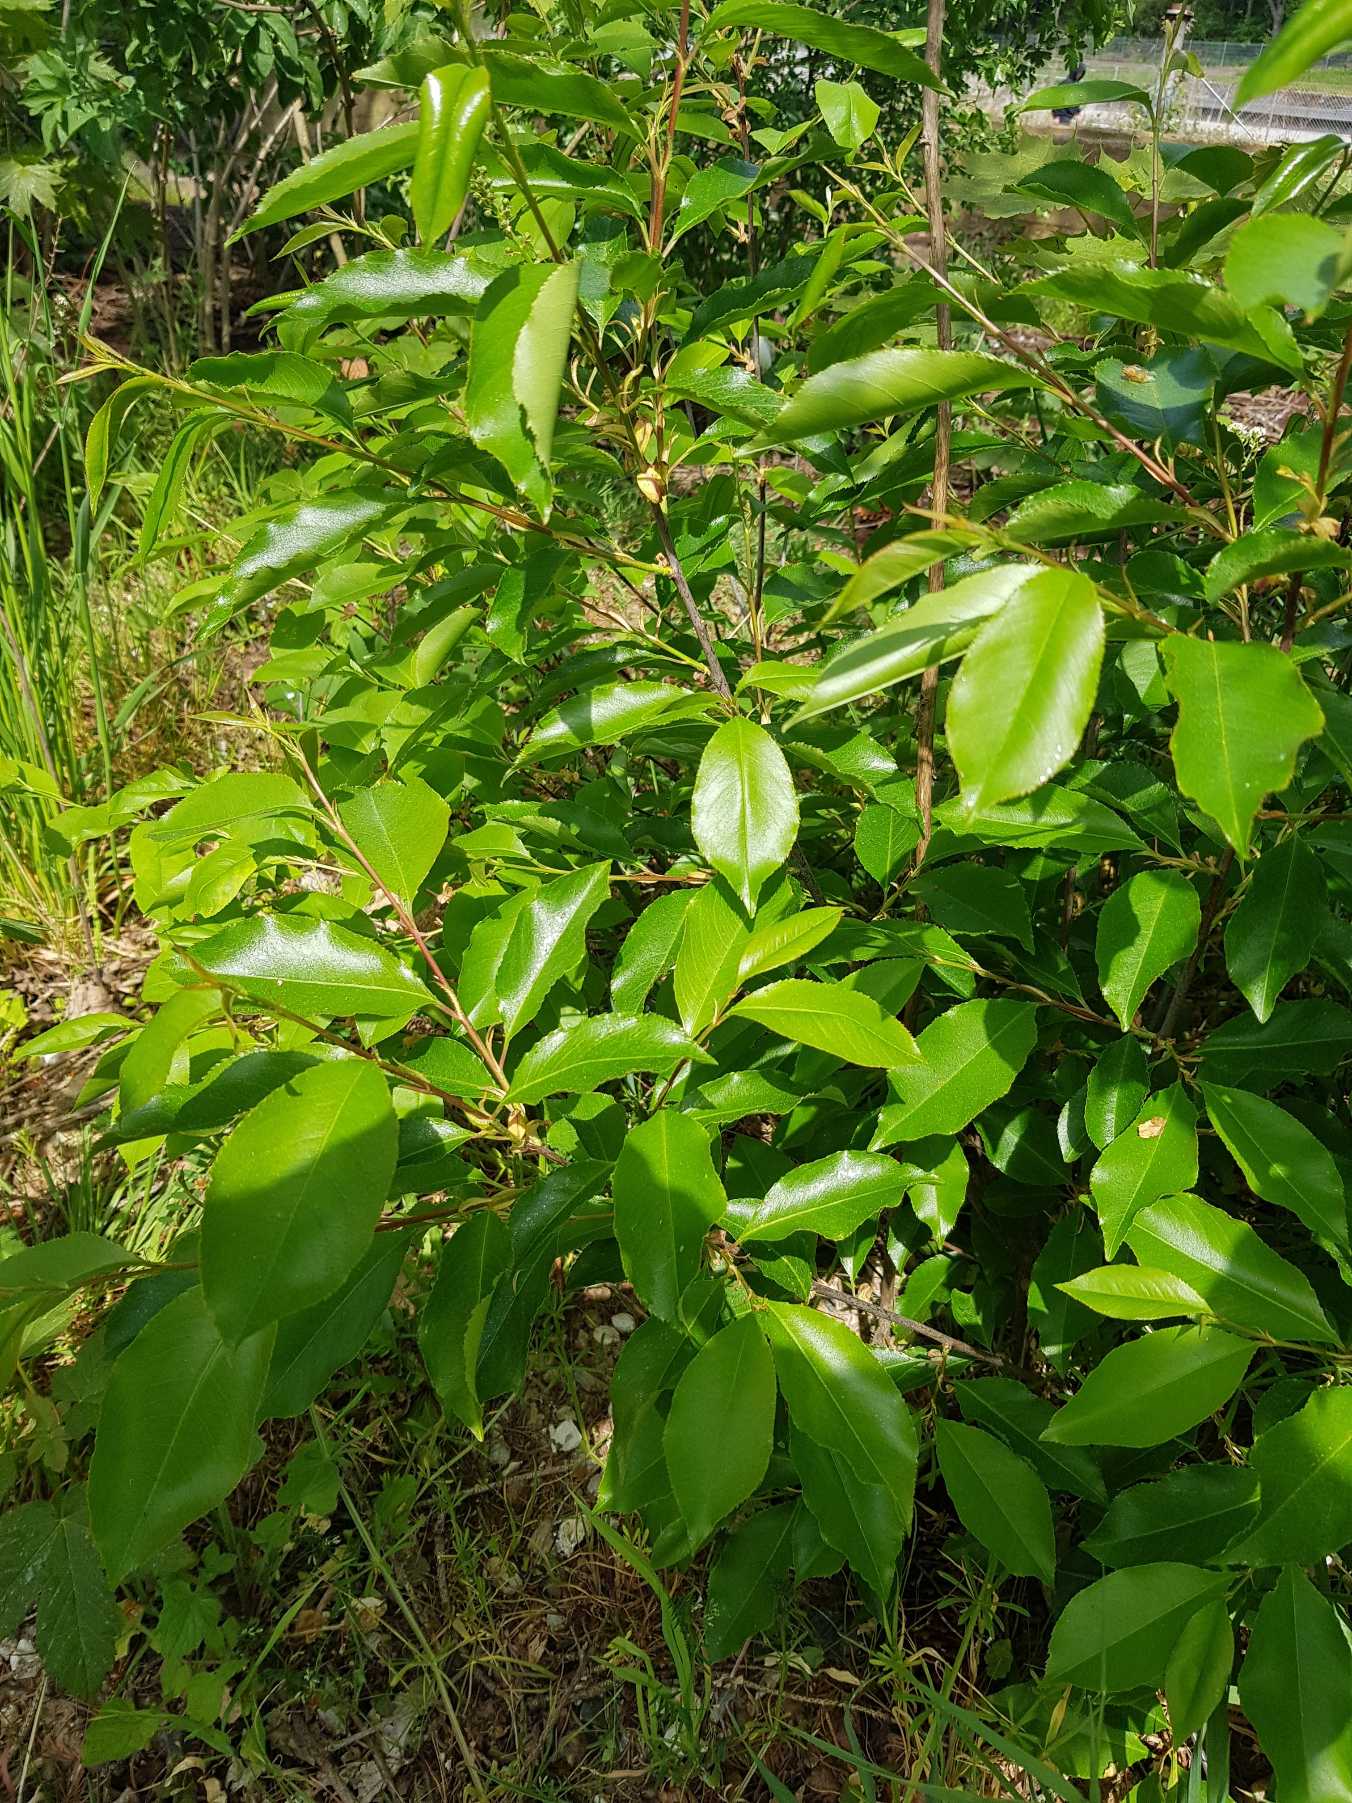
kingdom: Plantae
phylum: Tracheophyta
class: Magnoliopsida
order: Rosales
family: Rosaceae
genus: Prunus
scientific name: Prunus serotina
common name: Glansbladet hæg
